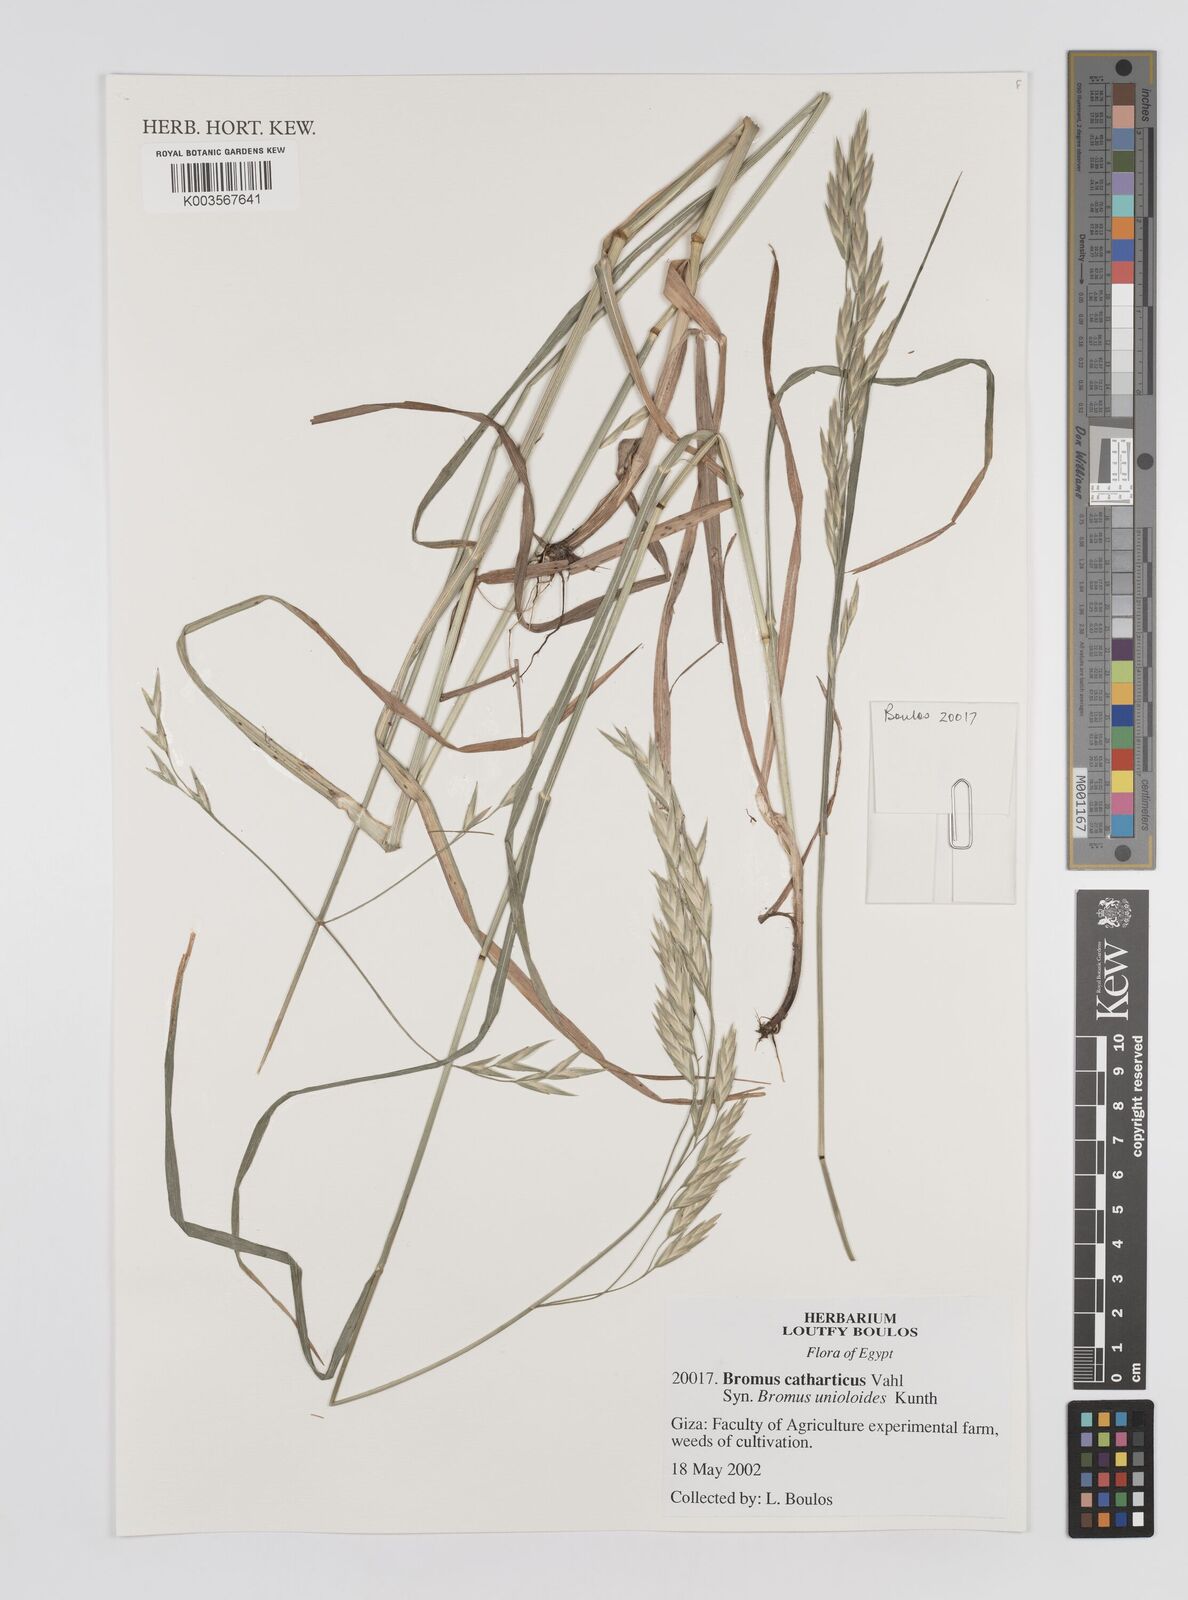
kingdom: Plantae
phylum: Tracheophyta
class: Liliopsida
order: Poales
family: Poaceae
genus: Bromus
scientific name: Bromus catharticus
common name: Rescuegrass
